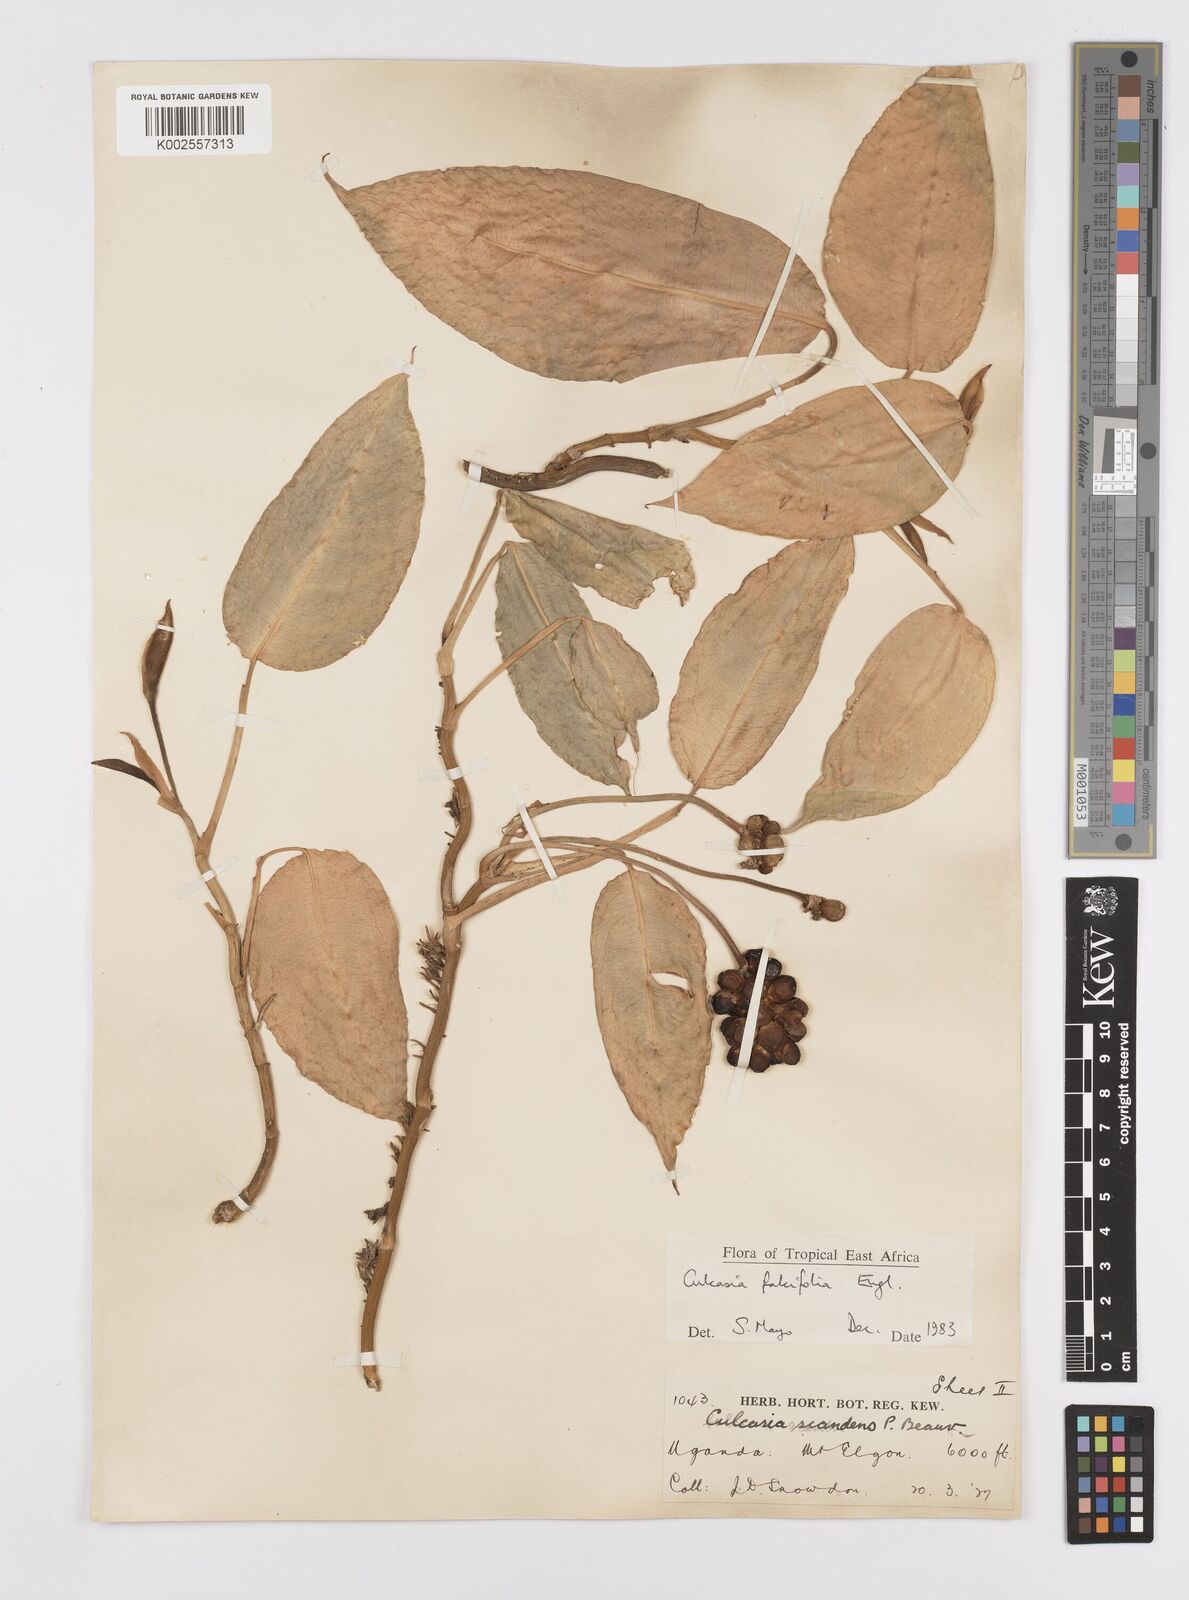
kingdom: Plantae
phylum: Tracheophyta
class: Liliopsida
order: Alismatales
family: Araceae
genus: Culcasia
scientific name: Culcasia falcifolia
